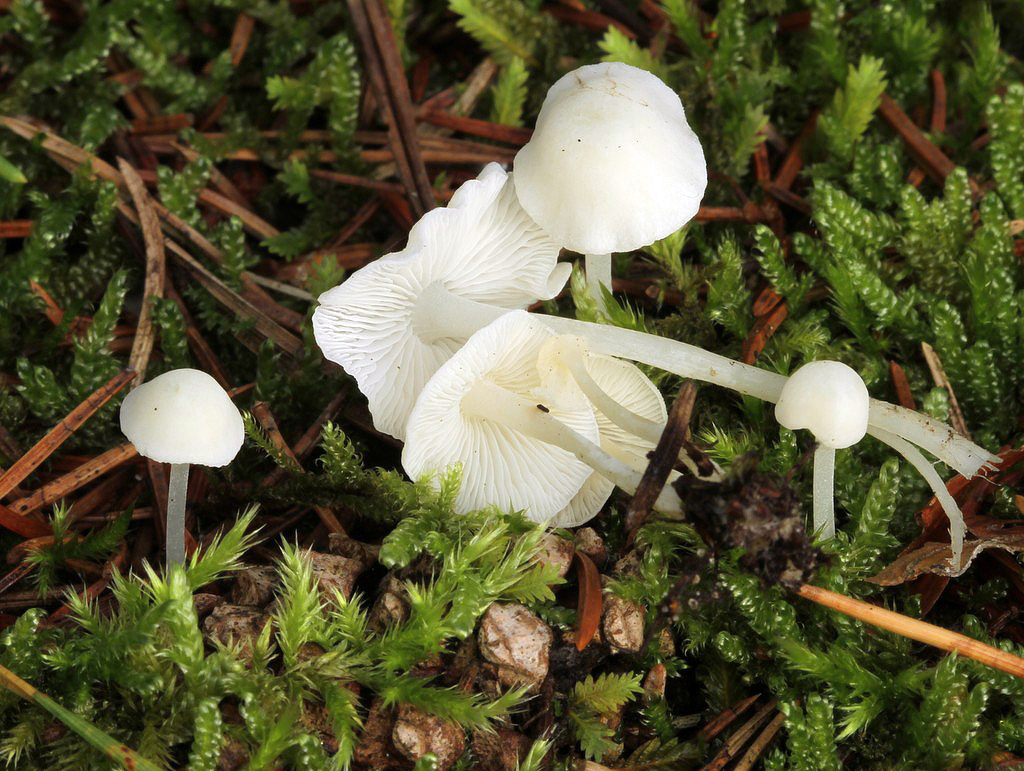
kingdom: Fungi
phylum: Basidiomycota
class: Agaricomycetes
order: Agaricales
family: Mycenaceae
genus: Hemimycena
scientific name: Hemimycena cucullata
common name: tætbladet huesvamp
